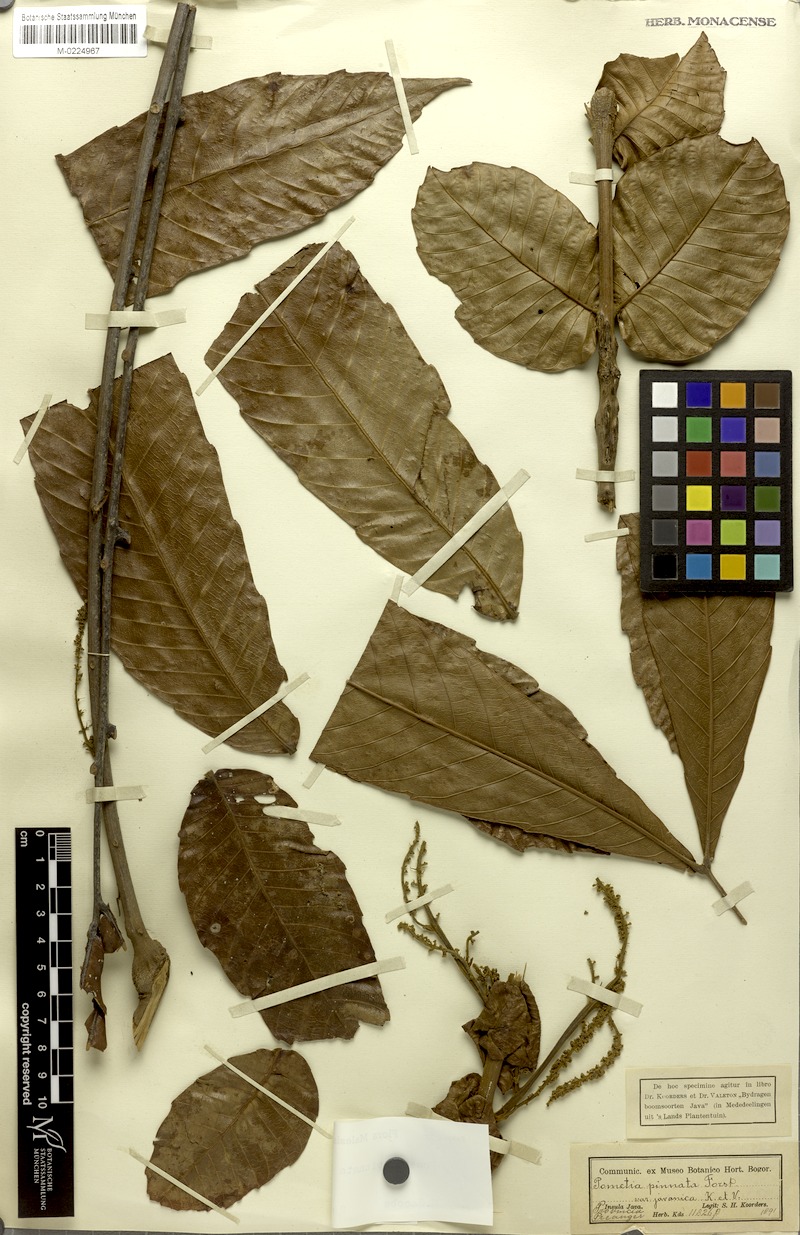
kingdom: Plantae
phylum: Tracheophyta
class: Magnoliopsida
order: Sapindales
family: Sapindaceae
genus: Pometia
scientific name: Pometia pinnata
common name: Oceanic lychee
